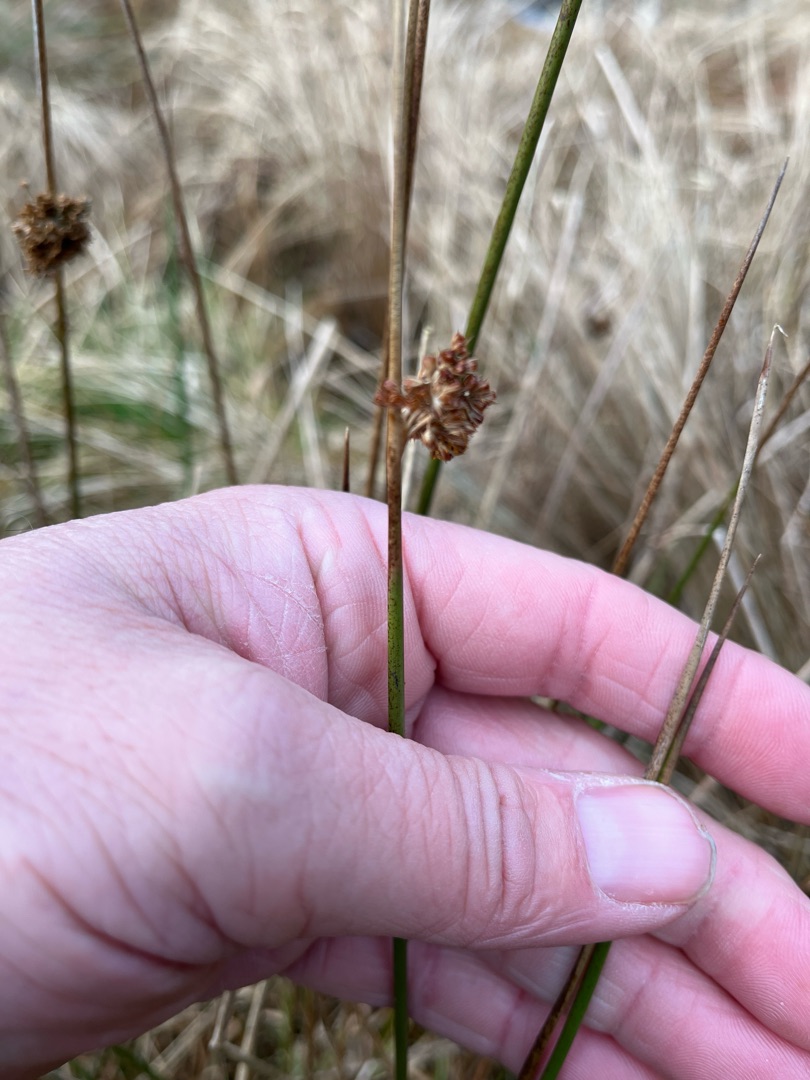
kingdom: Plantae
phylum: Tracheophyta
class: Liliopsida
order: Poales
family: Juncaceae
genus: Juncus
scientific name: Juncus effusus
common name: Lyse-siv
